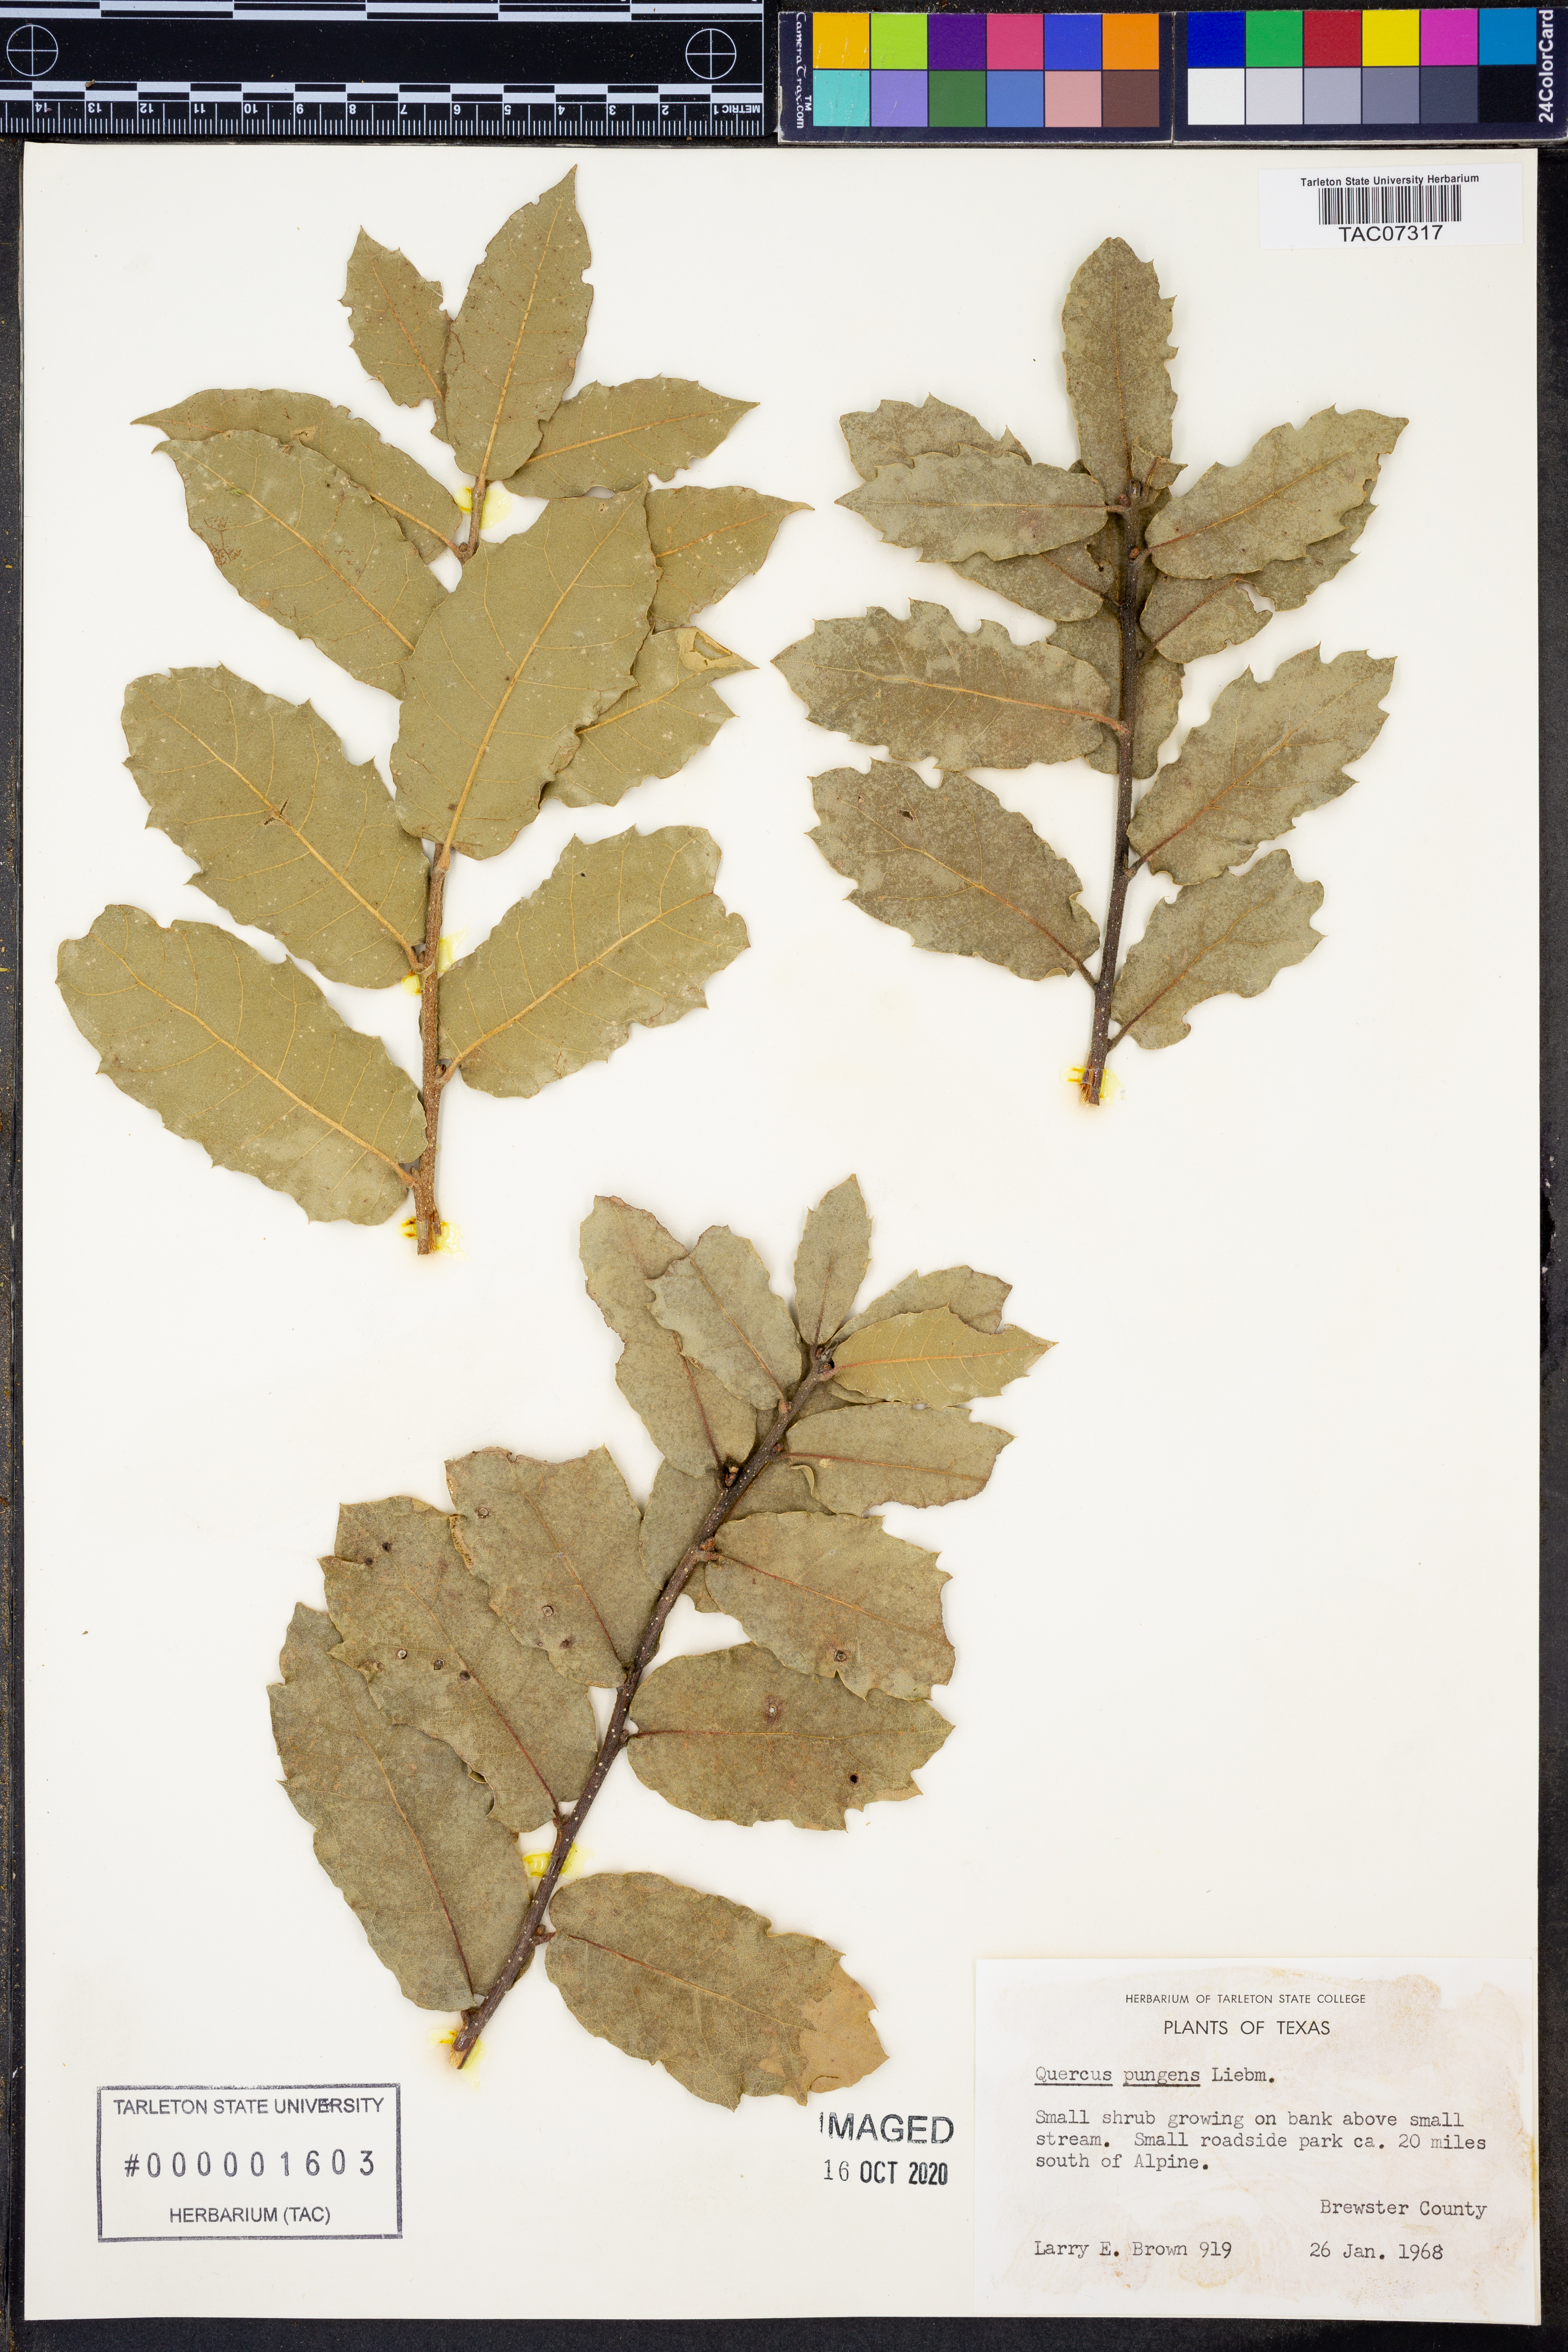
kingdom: Plantae
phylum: Tracheophyta
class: Magnoliopsida
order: Fagales
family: Fagaceae
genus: Quercus
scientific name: Quercus pungens
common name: Pungent oak
